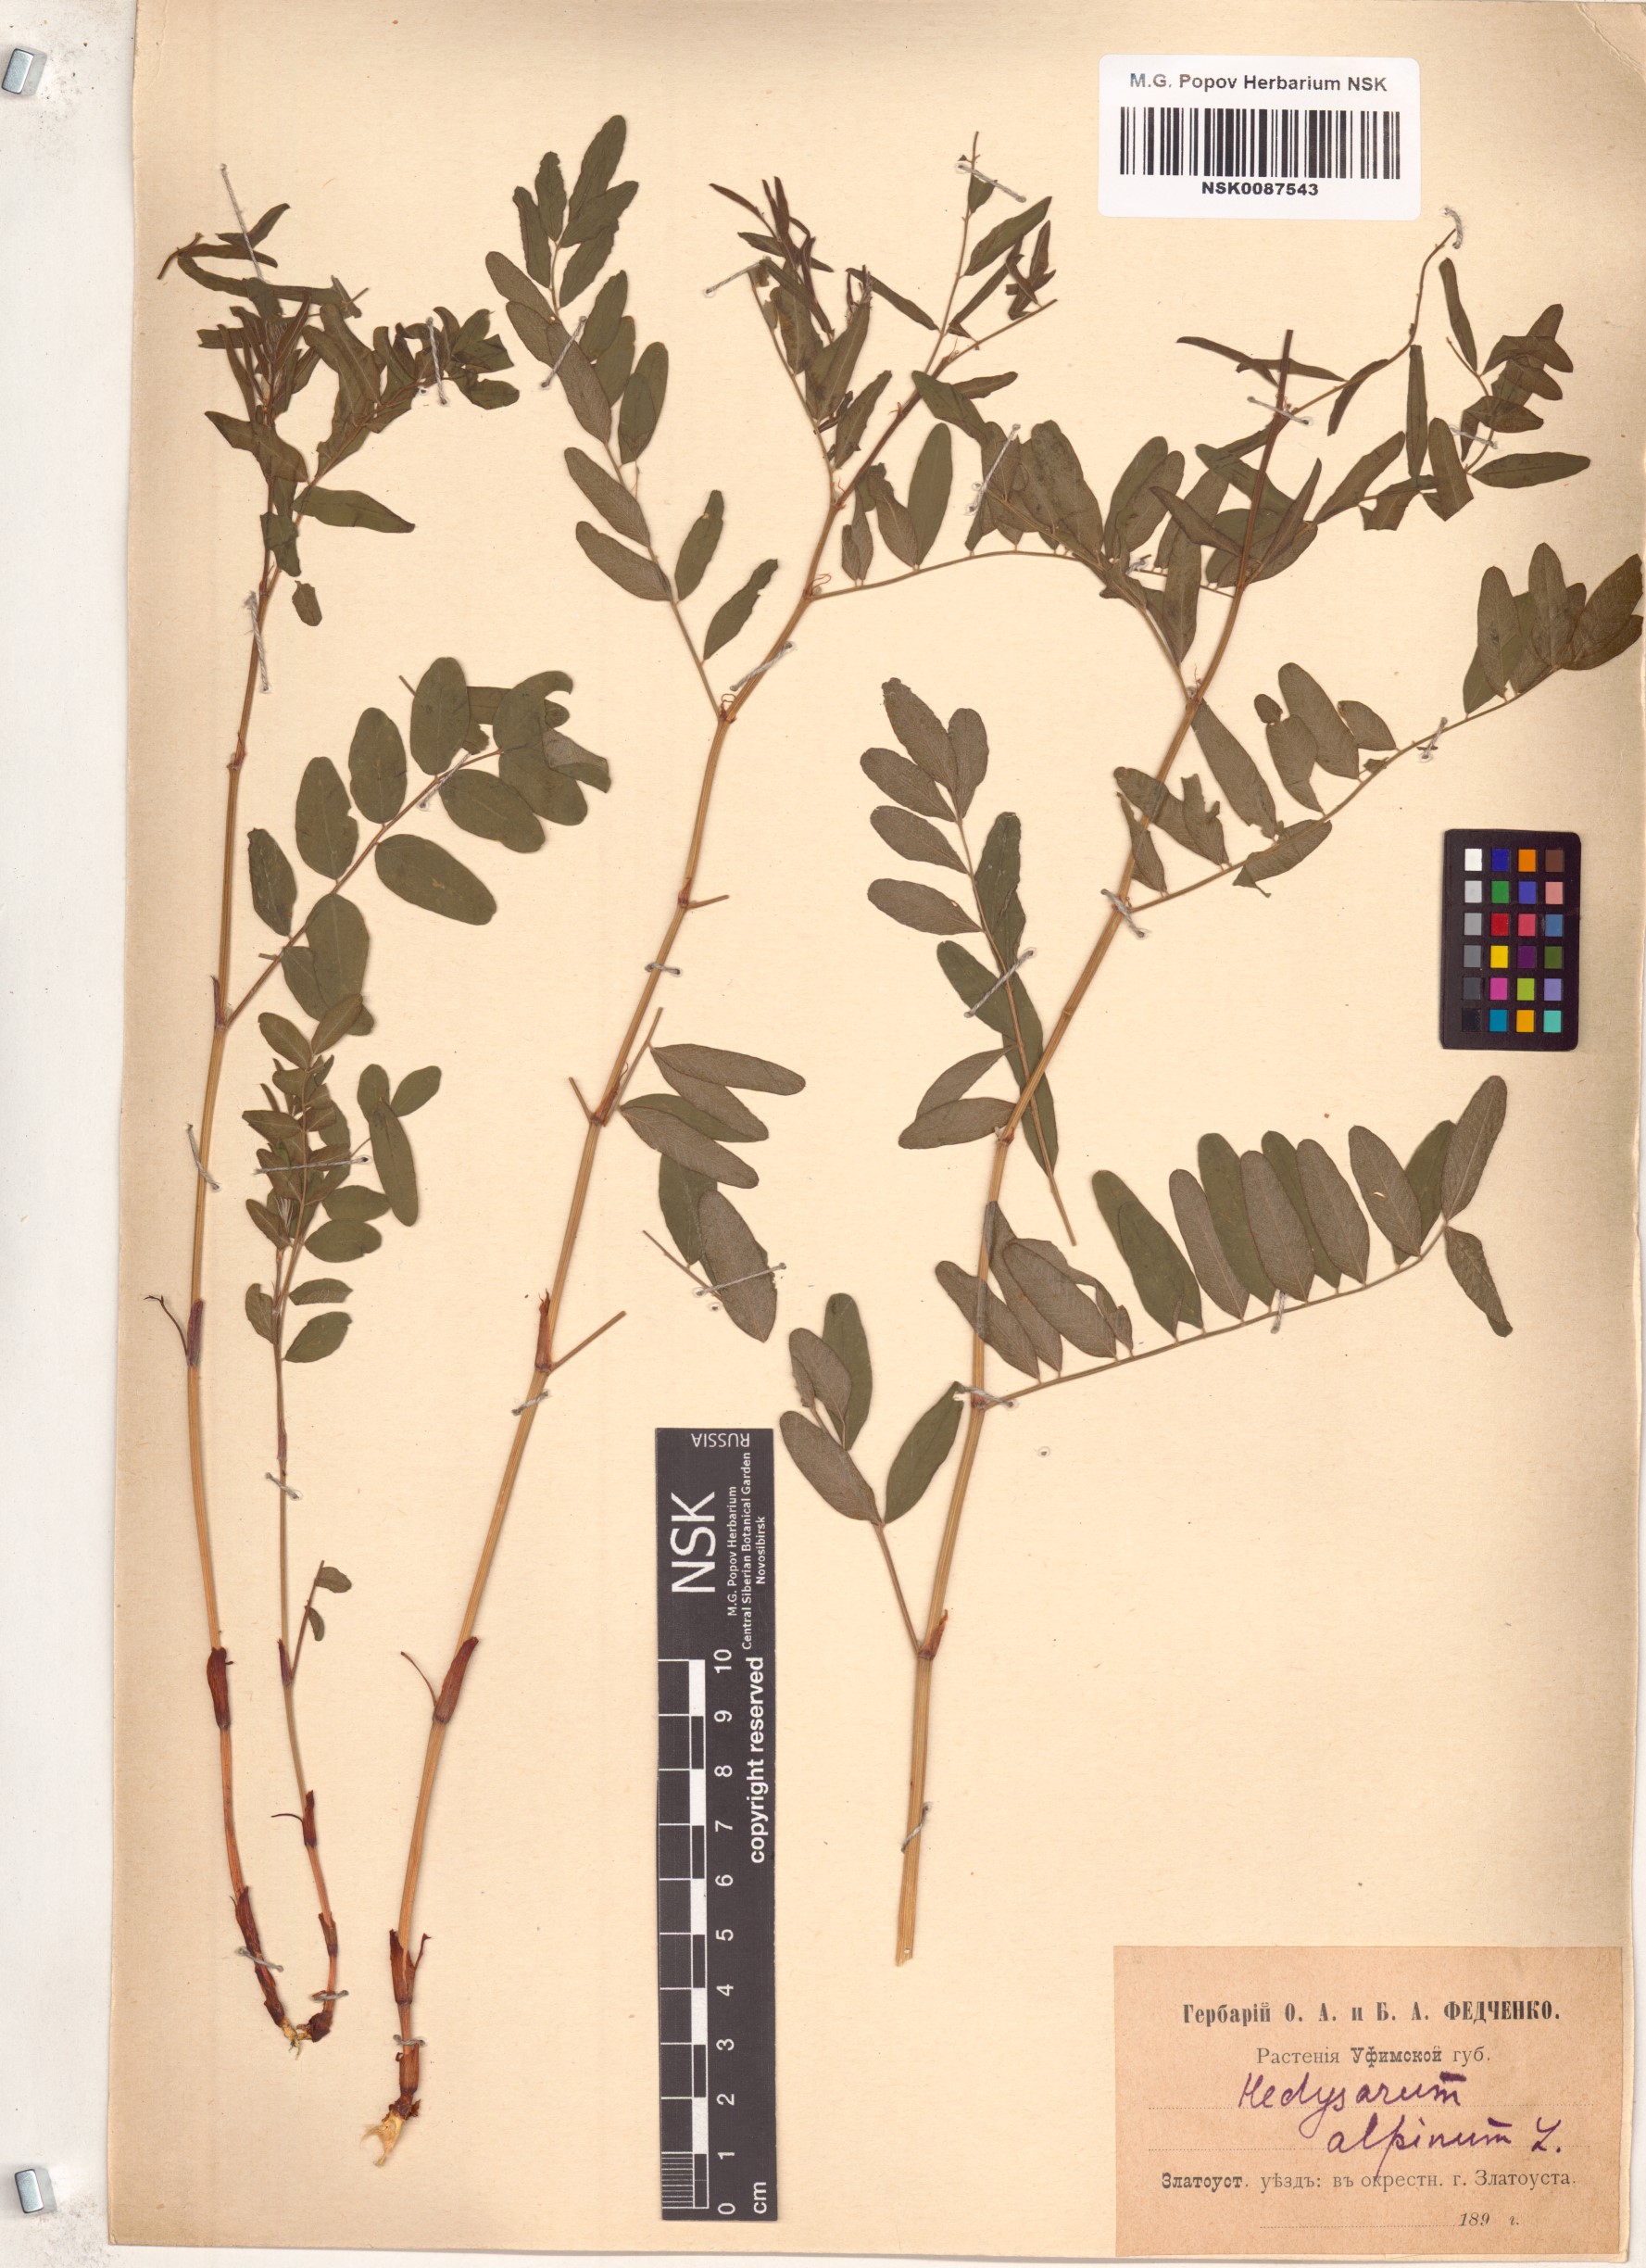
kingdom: Plantae
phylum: Tracheophyta
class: Magnoliopsida
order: Fabales
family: Fabaceae
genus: Hedysarum
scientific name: Hedysarum alpinum
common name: Alpine sweet-vetch
